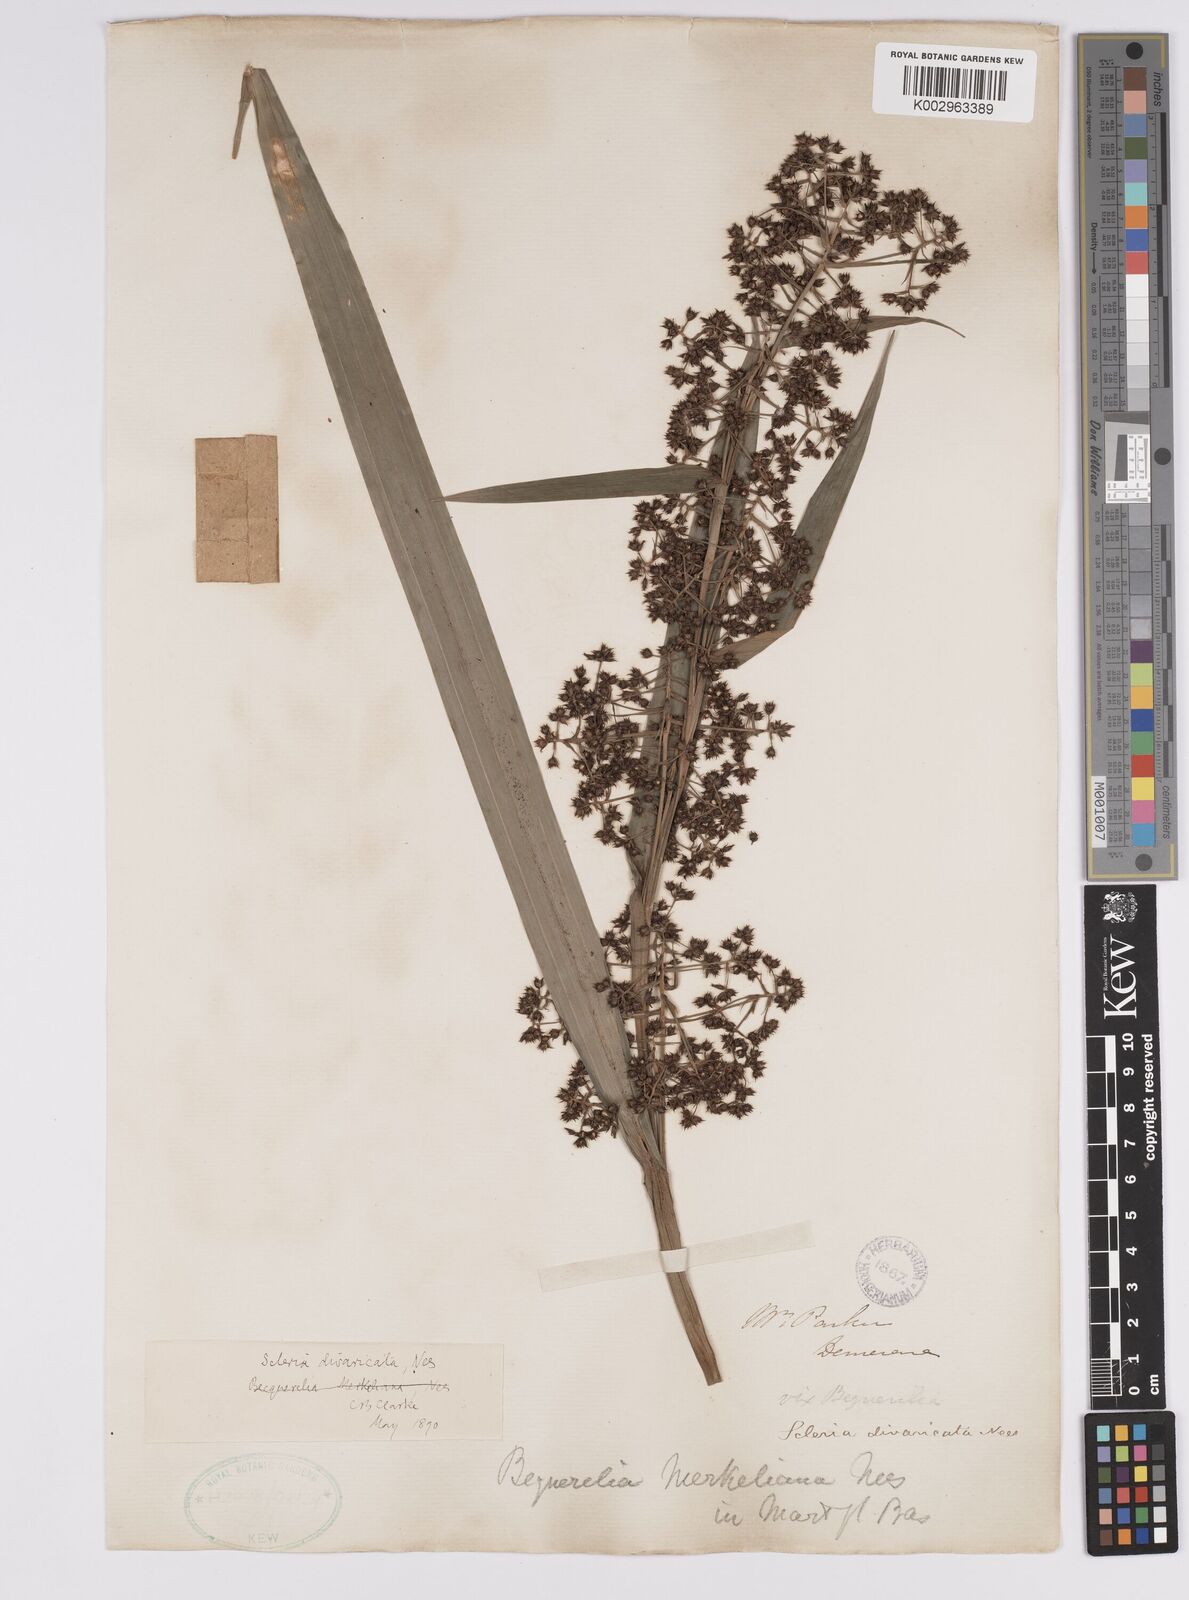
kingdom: Plantae
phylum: Tracheophyta
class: Liliopsida
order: Poales
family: Cyperaceae
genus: Becquerelia
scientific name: Becquerelia merkeliana
